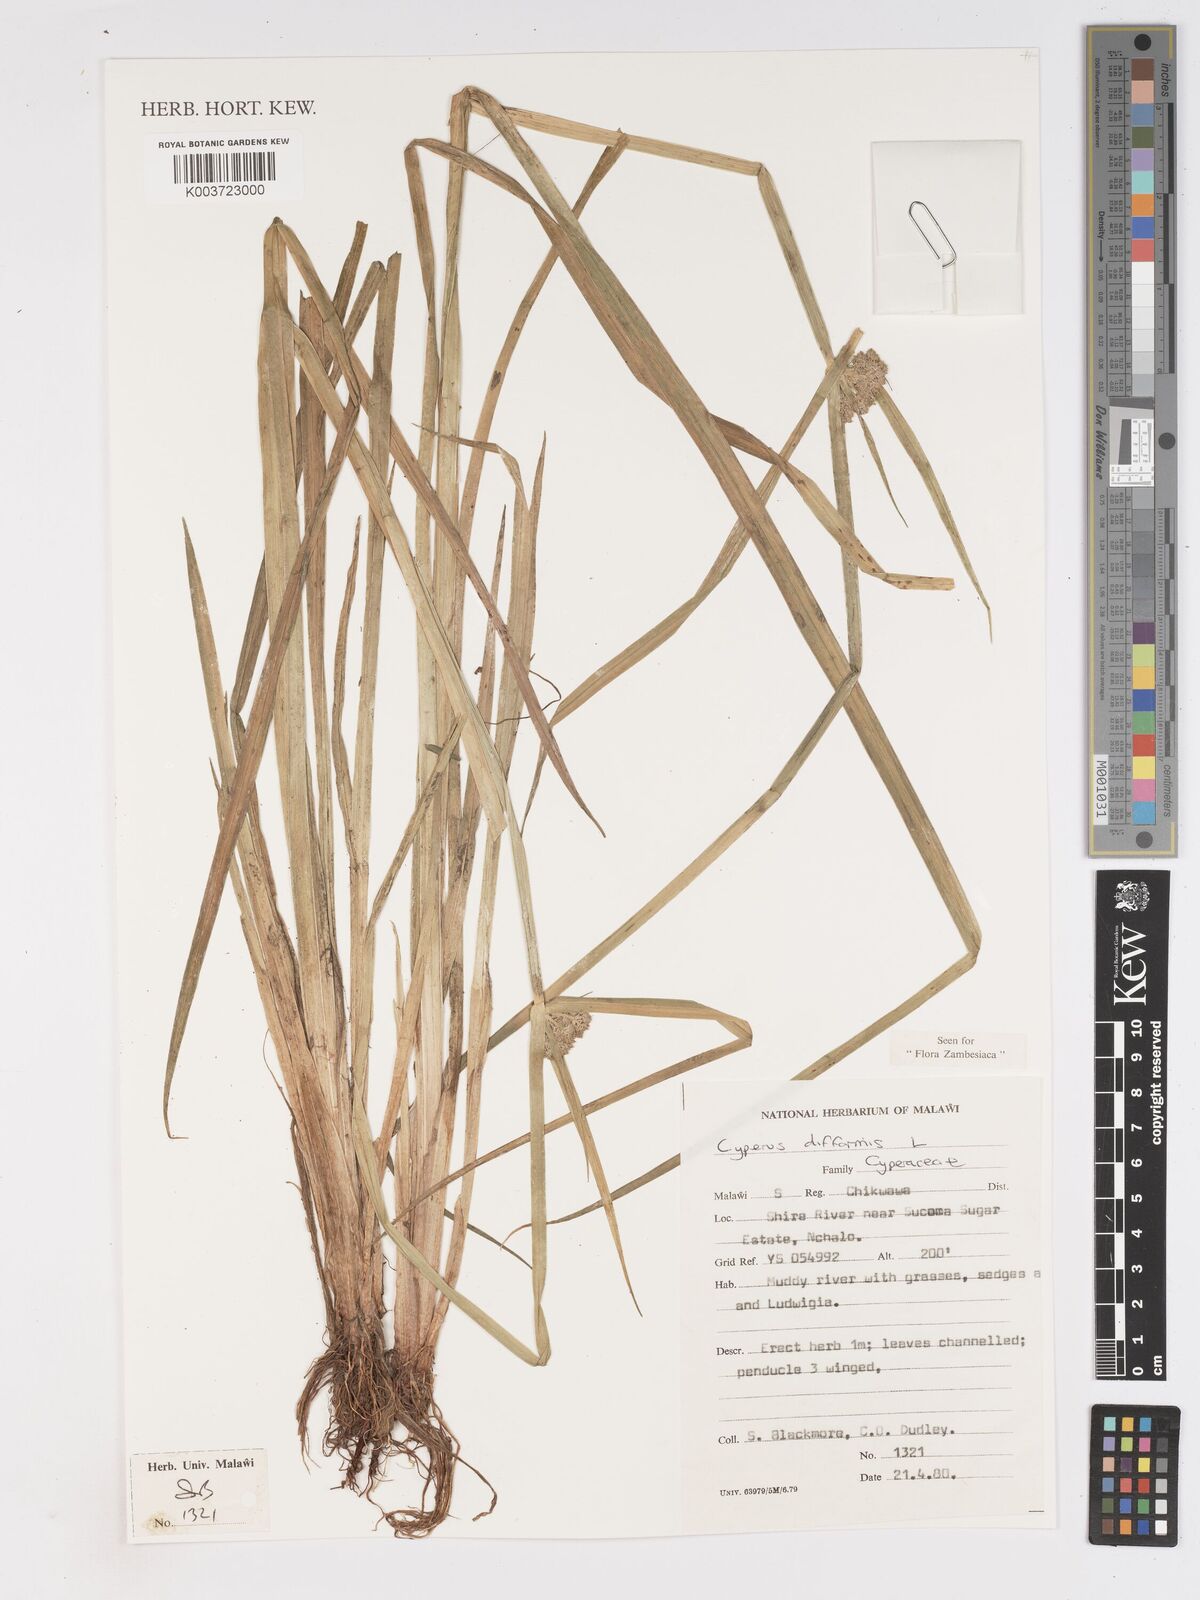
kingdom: Plantae
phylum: Tracheophyta
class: Liliopsida
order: Poales
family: Cyperaceae
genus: Cyperus
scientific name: Cyperus difformis
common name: Variable flatsedge
